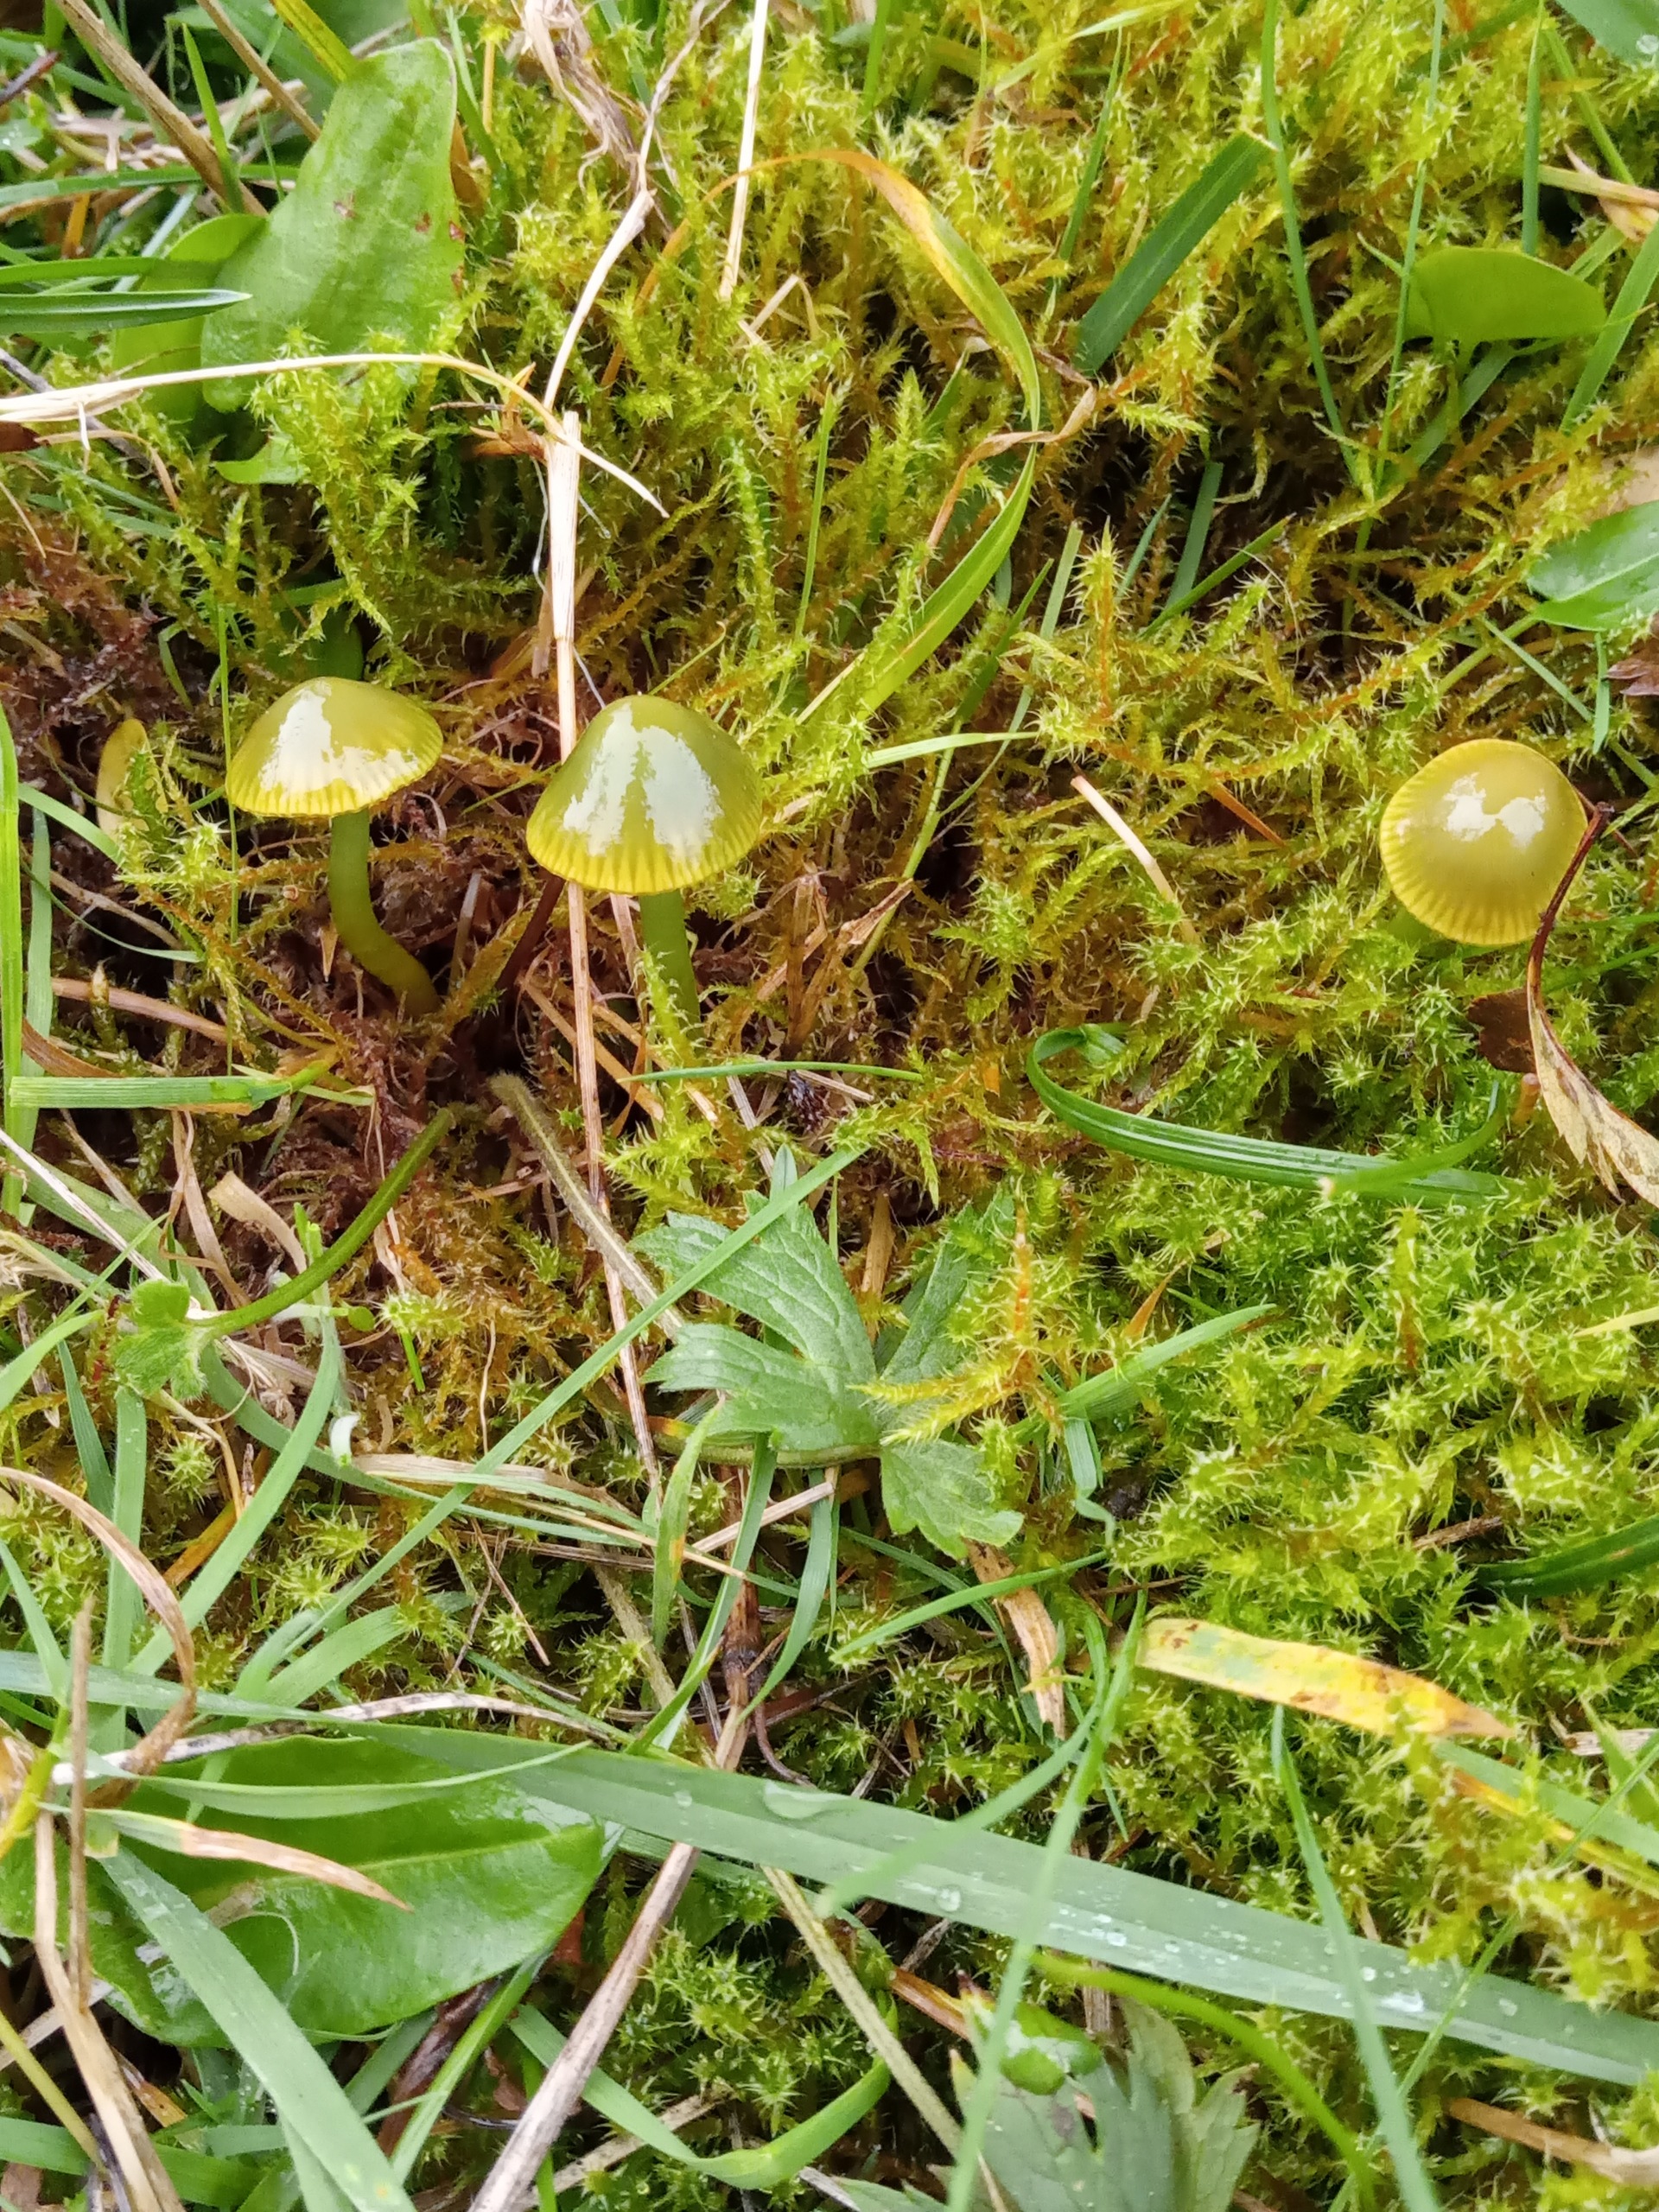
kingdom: Fungi
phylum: Basidiomycota
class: Agaricomycetes
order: Agaricales
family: Hygrophoraceae
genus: Gliophorus
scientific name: Gliophorus psittacinus
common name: Papegøje-vokshat
